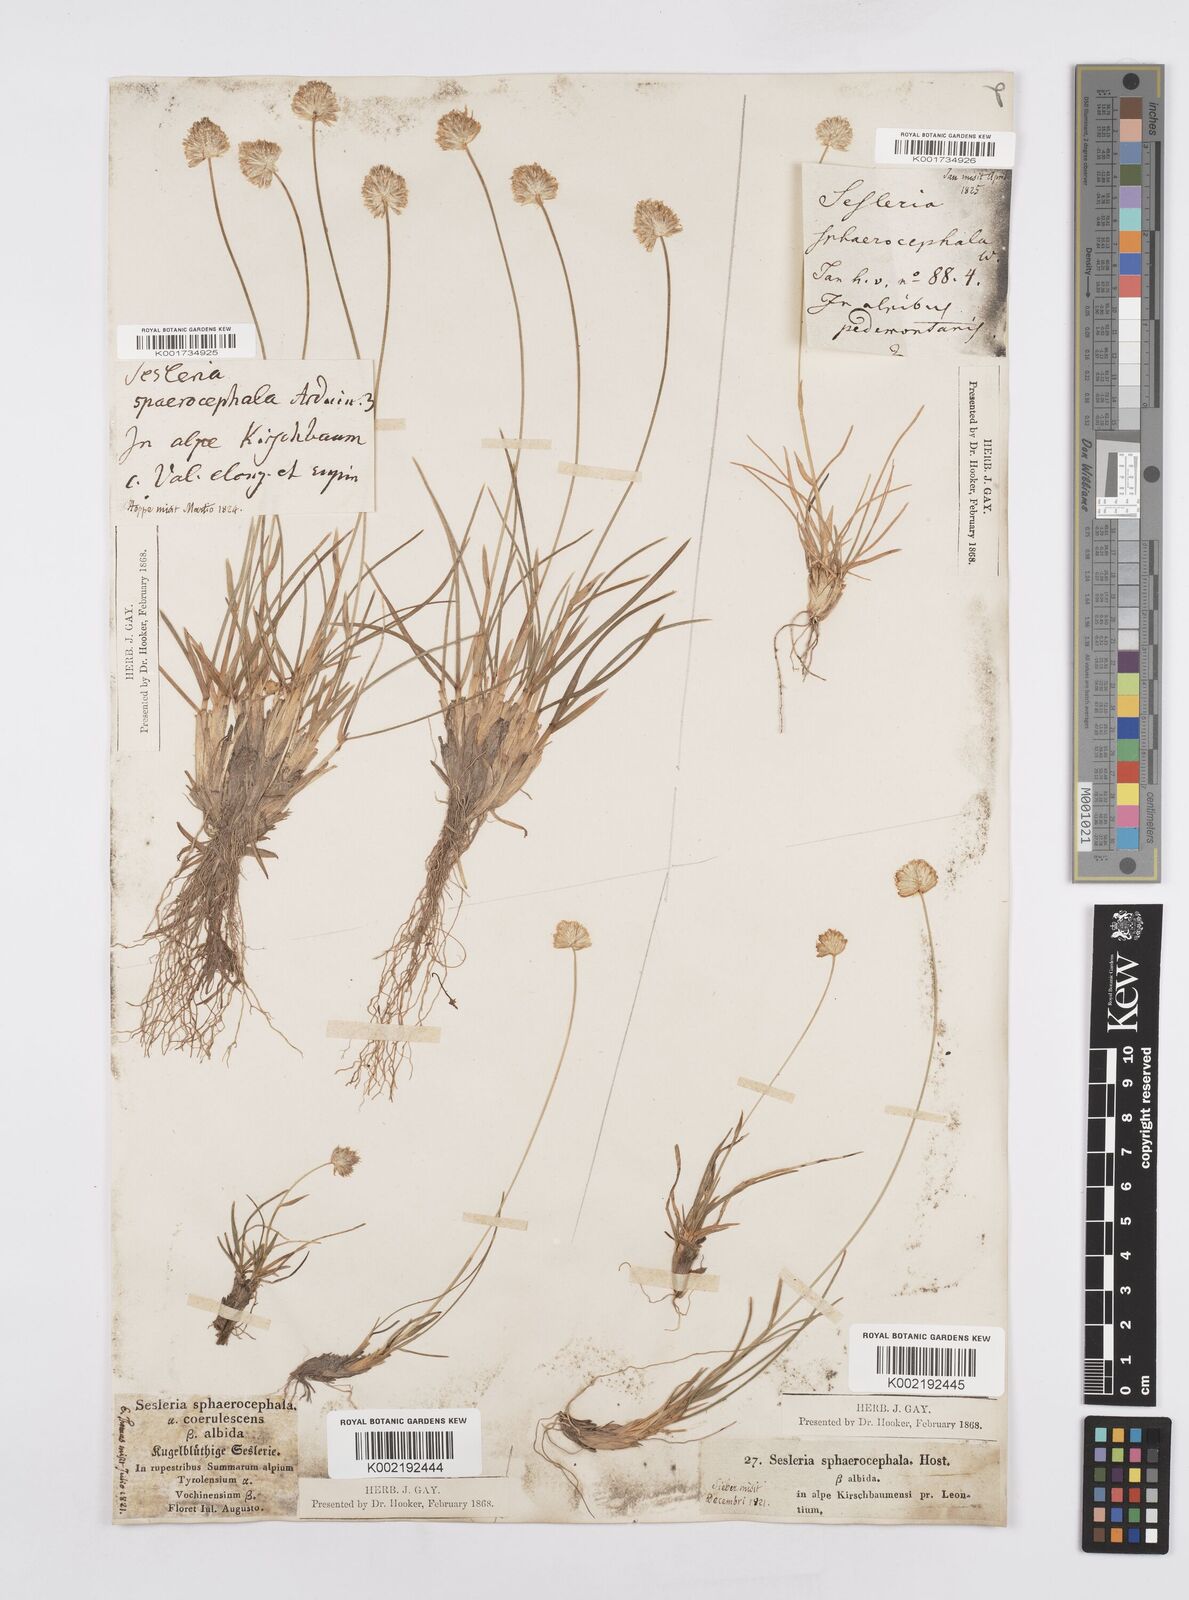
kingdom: Plantae
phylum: Tracheophyta
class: Liliopsida
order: Poales
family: Poaceae
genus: Sesleriella
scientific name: Sesleriella sphaerocephala
